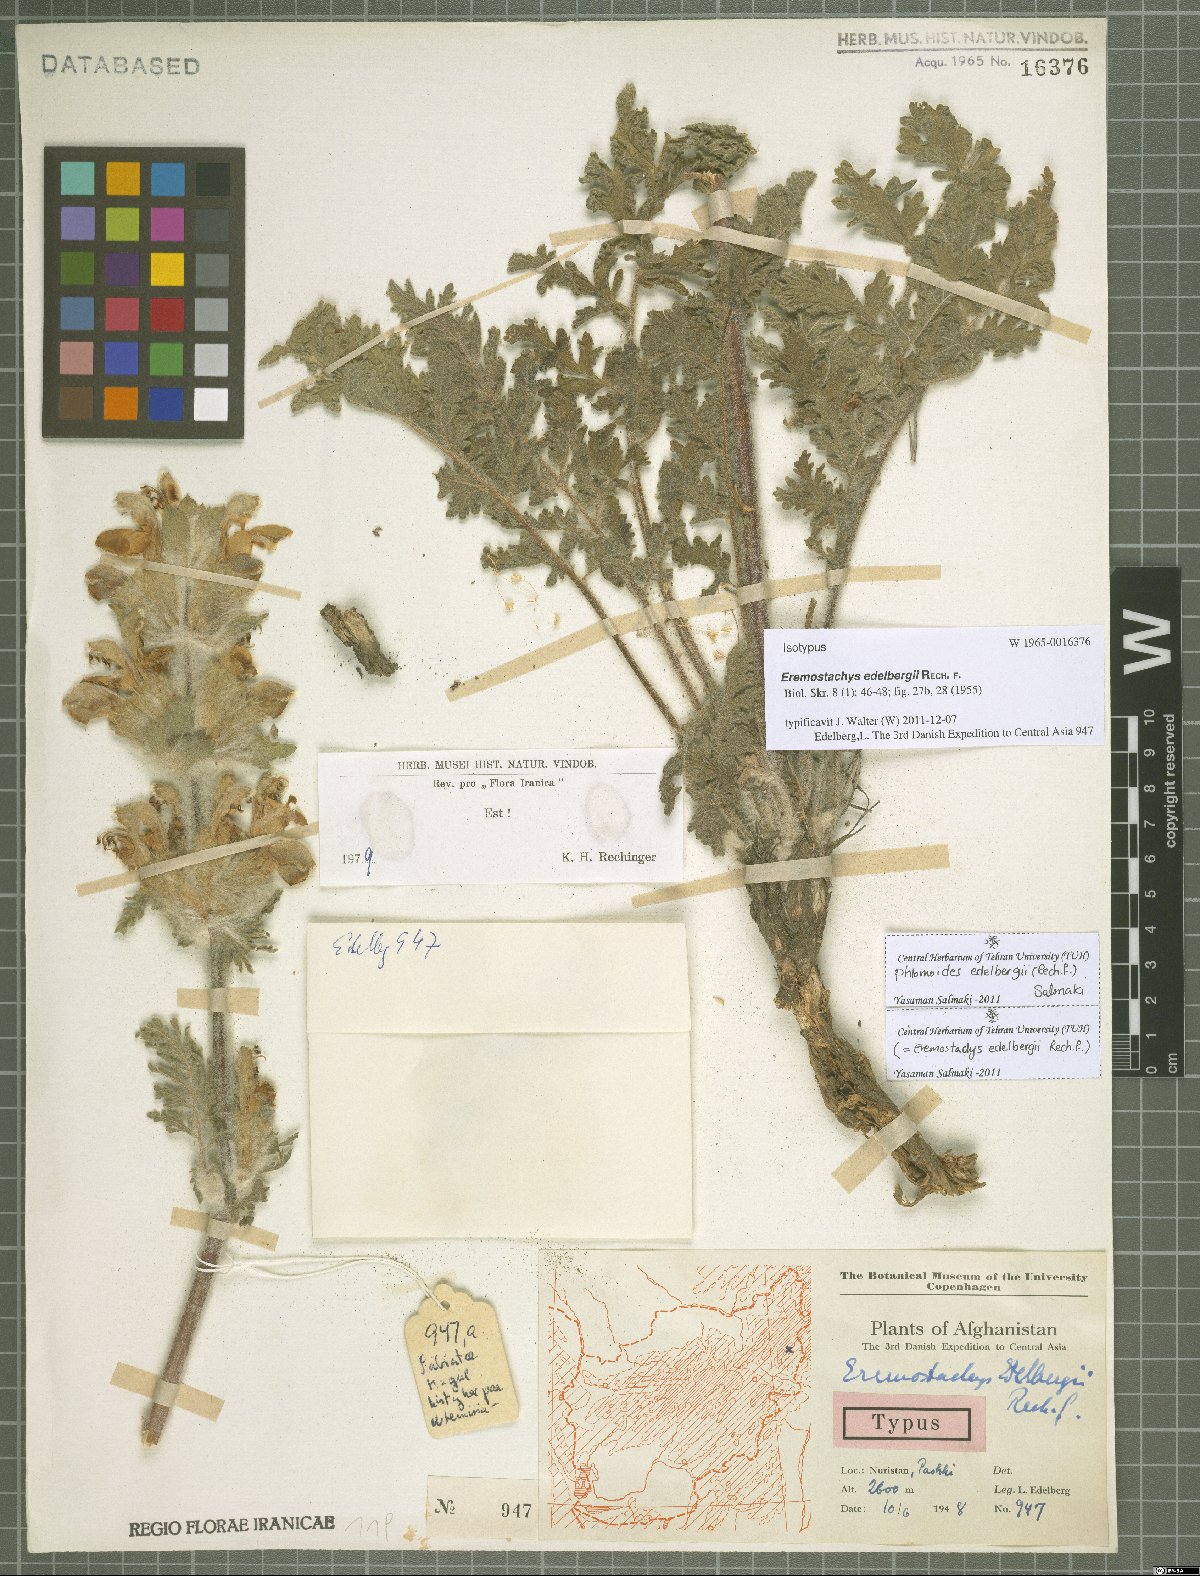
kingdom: Plantae
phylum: Tracheophyta
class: Magnoliopsida
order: Lamiales
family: Lamiaceae
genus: Phlomoides
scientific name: Phlomoides edelbergii
